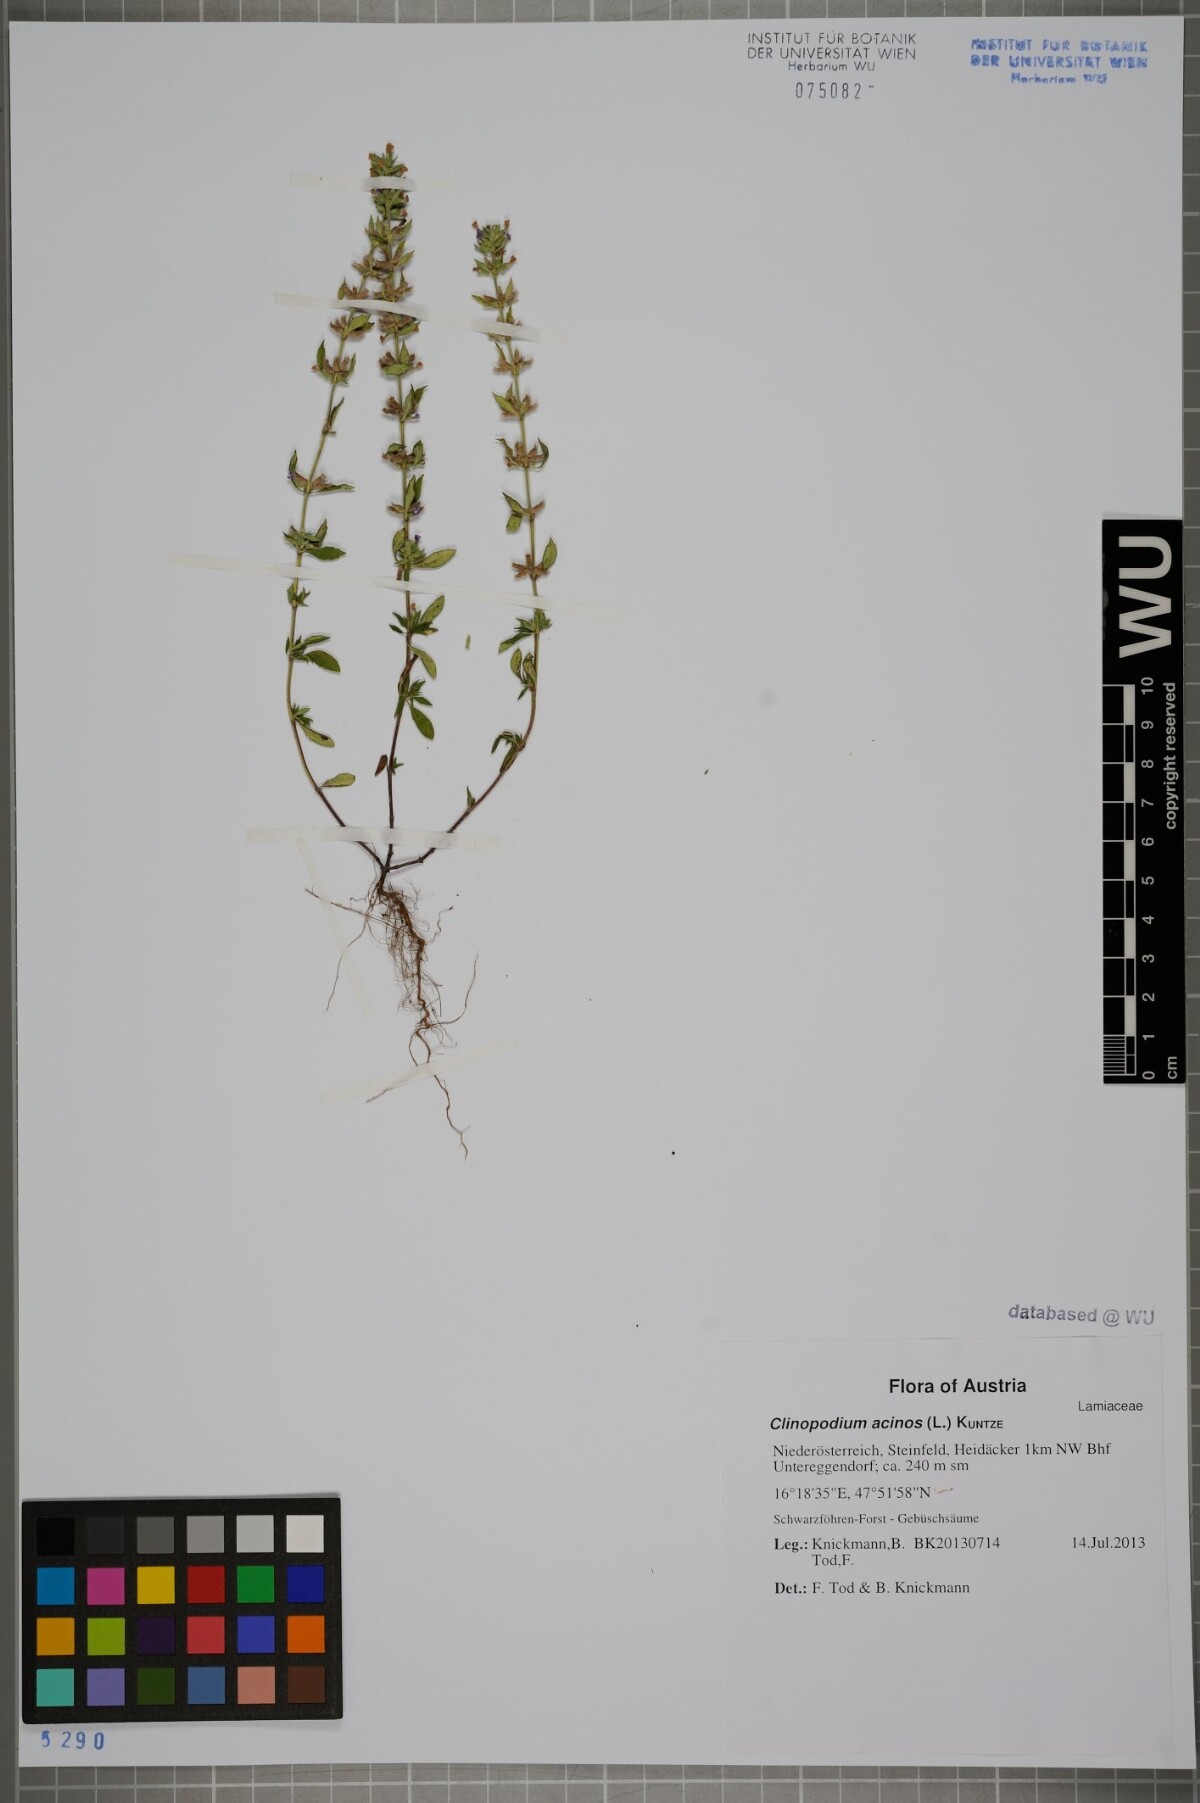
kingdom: Plantae
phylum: Tracheophyta
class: Magnoliopsida
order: Lamiales
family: Lamiaceae
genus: Clinopodium
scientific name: Clinopodium acinos
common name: Basil thyme
